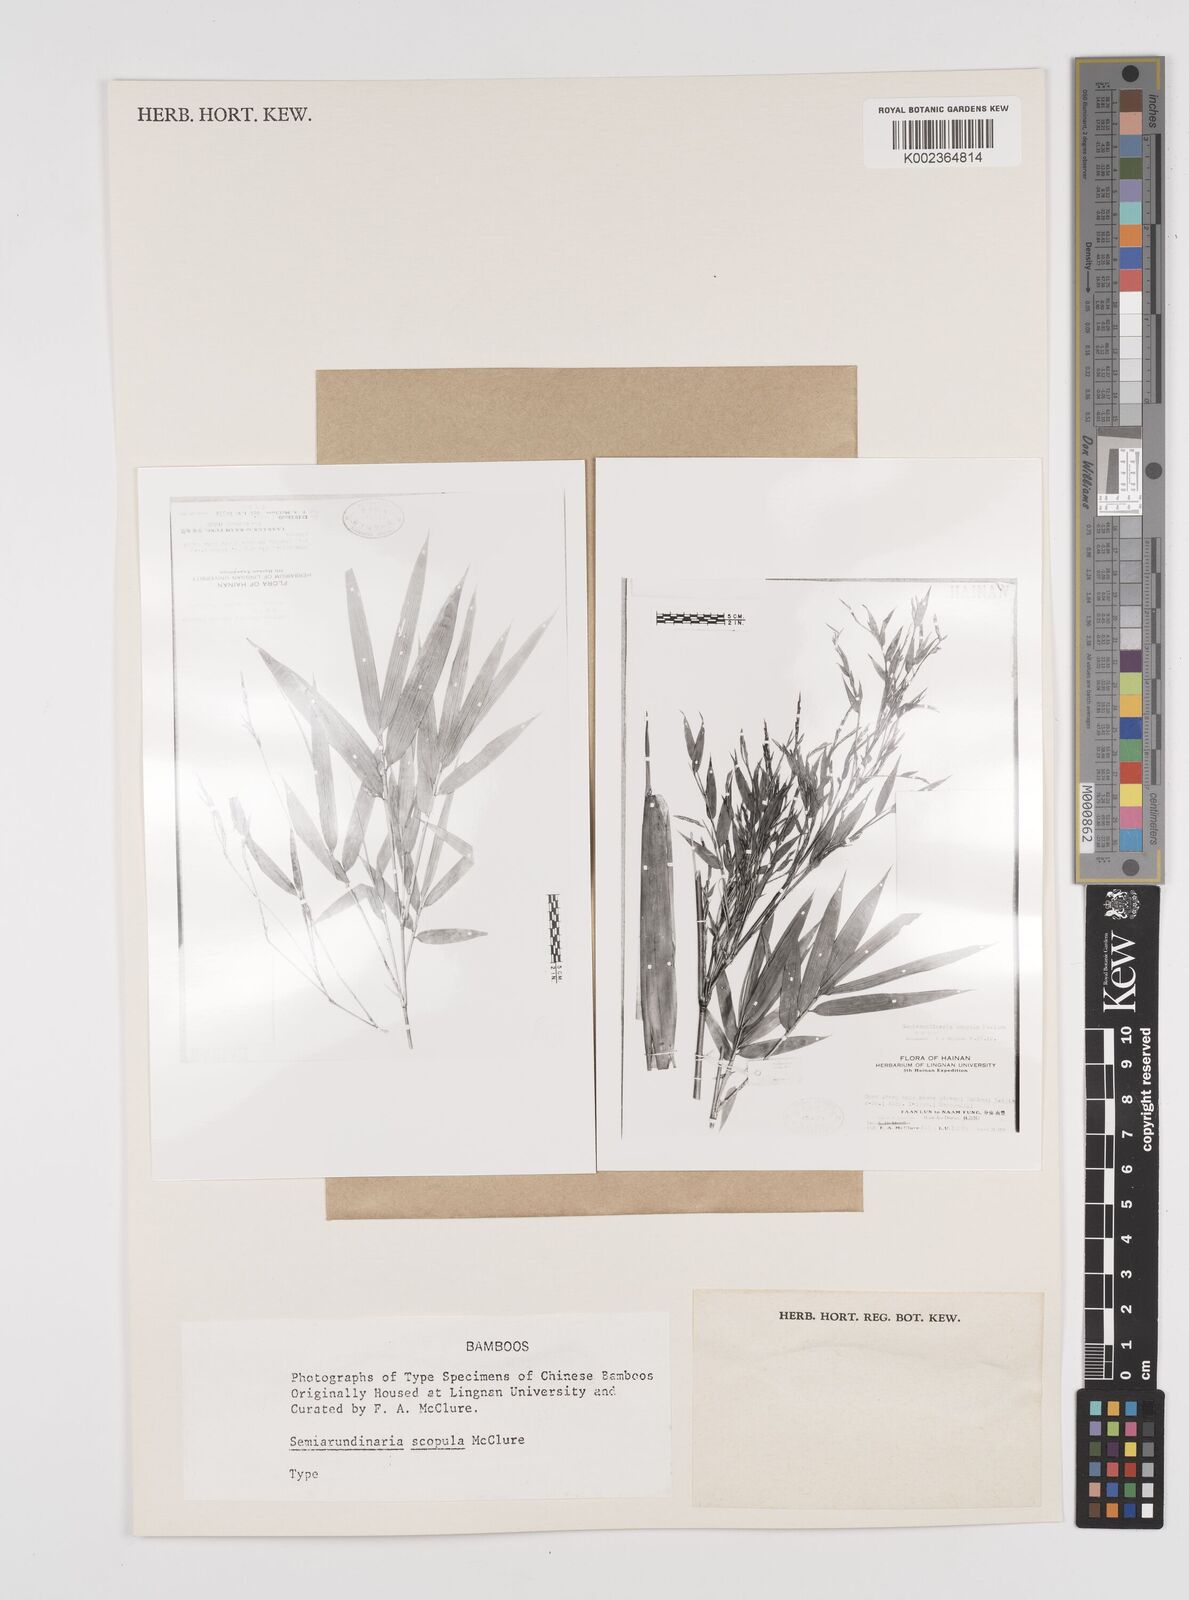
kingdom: Plantae
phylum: Tracheophyta
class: Liliopsida
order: Poales
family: Poaceae
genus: Semiarundinaria
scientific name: Semiarundinaria fastuosa
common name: Narihira bamboo
